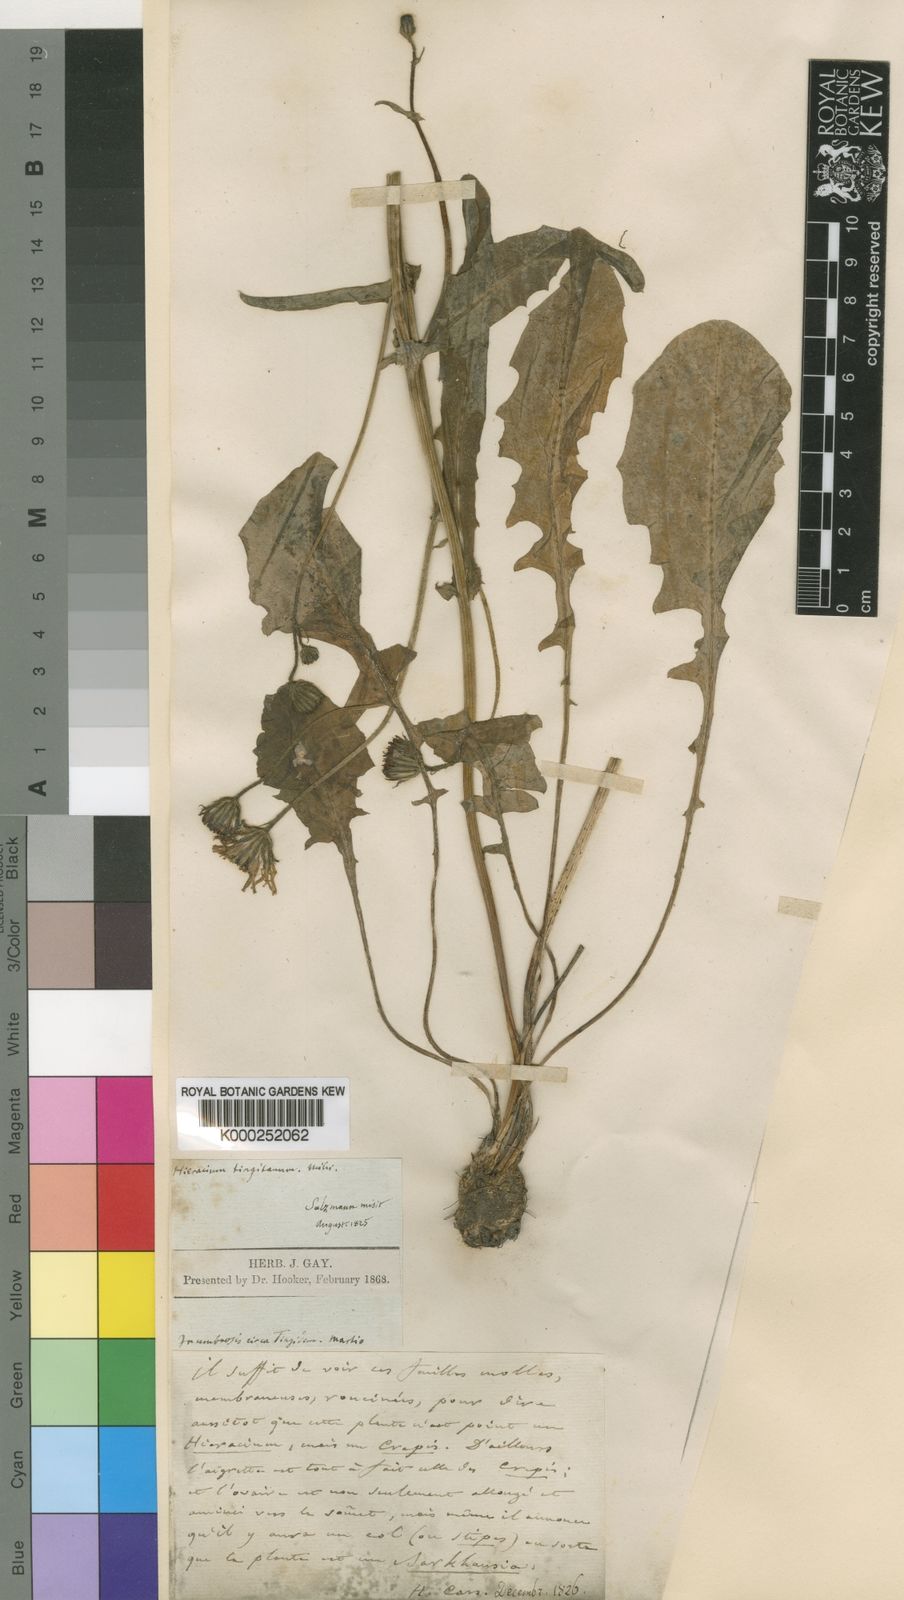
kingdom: Plantae
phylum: Tracheophyta
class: Magnoliopsida
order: Asterales
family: Asteraceae
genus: Crepis
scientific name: Crepis tingitana
